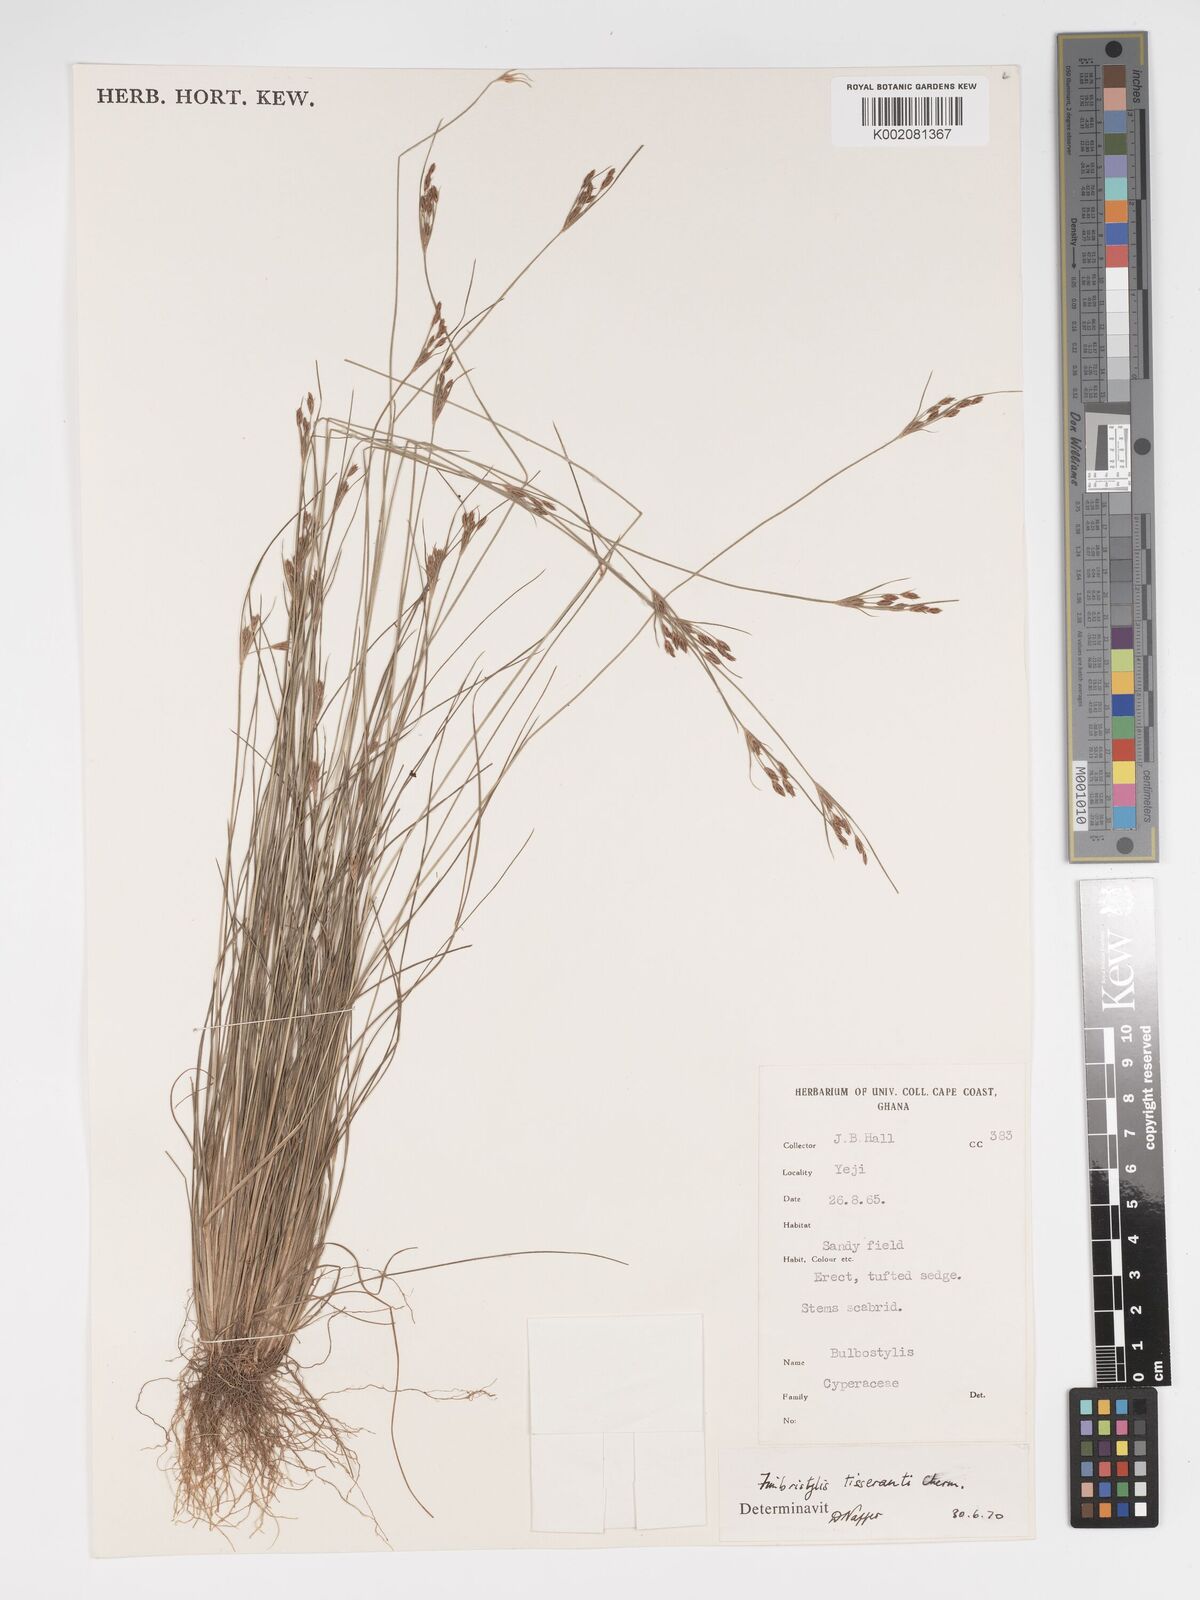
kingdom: Plantae
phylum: Tracheophyta
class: Liliopsida
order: Poales
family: Cyperaceae
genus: Bulbostylis
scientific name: Bulbostylis viridecarinata
